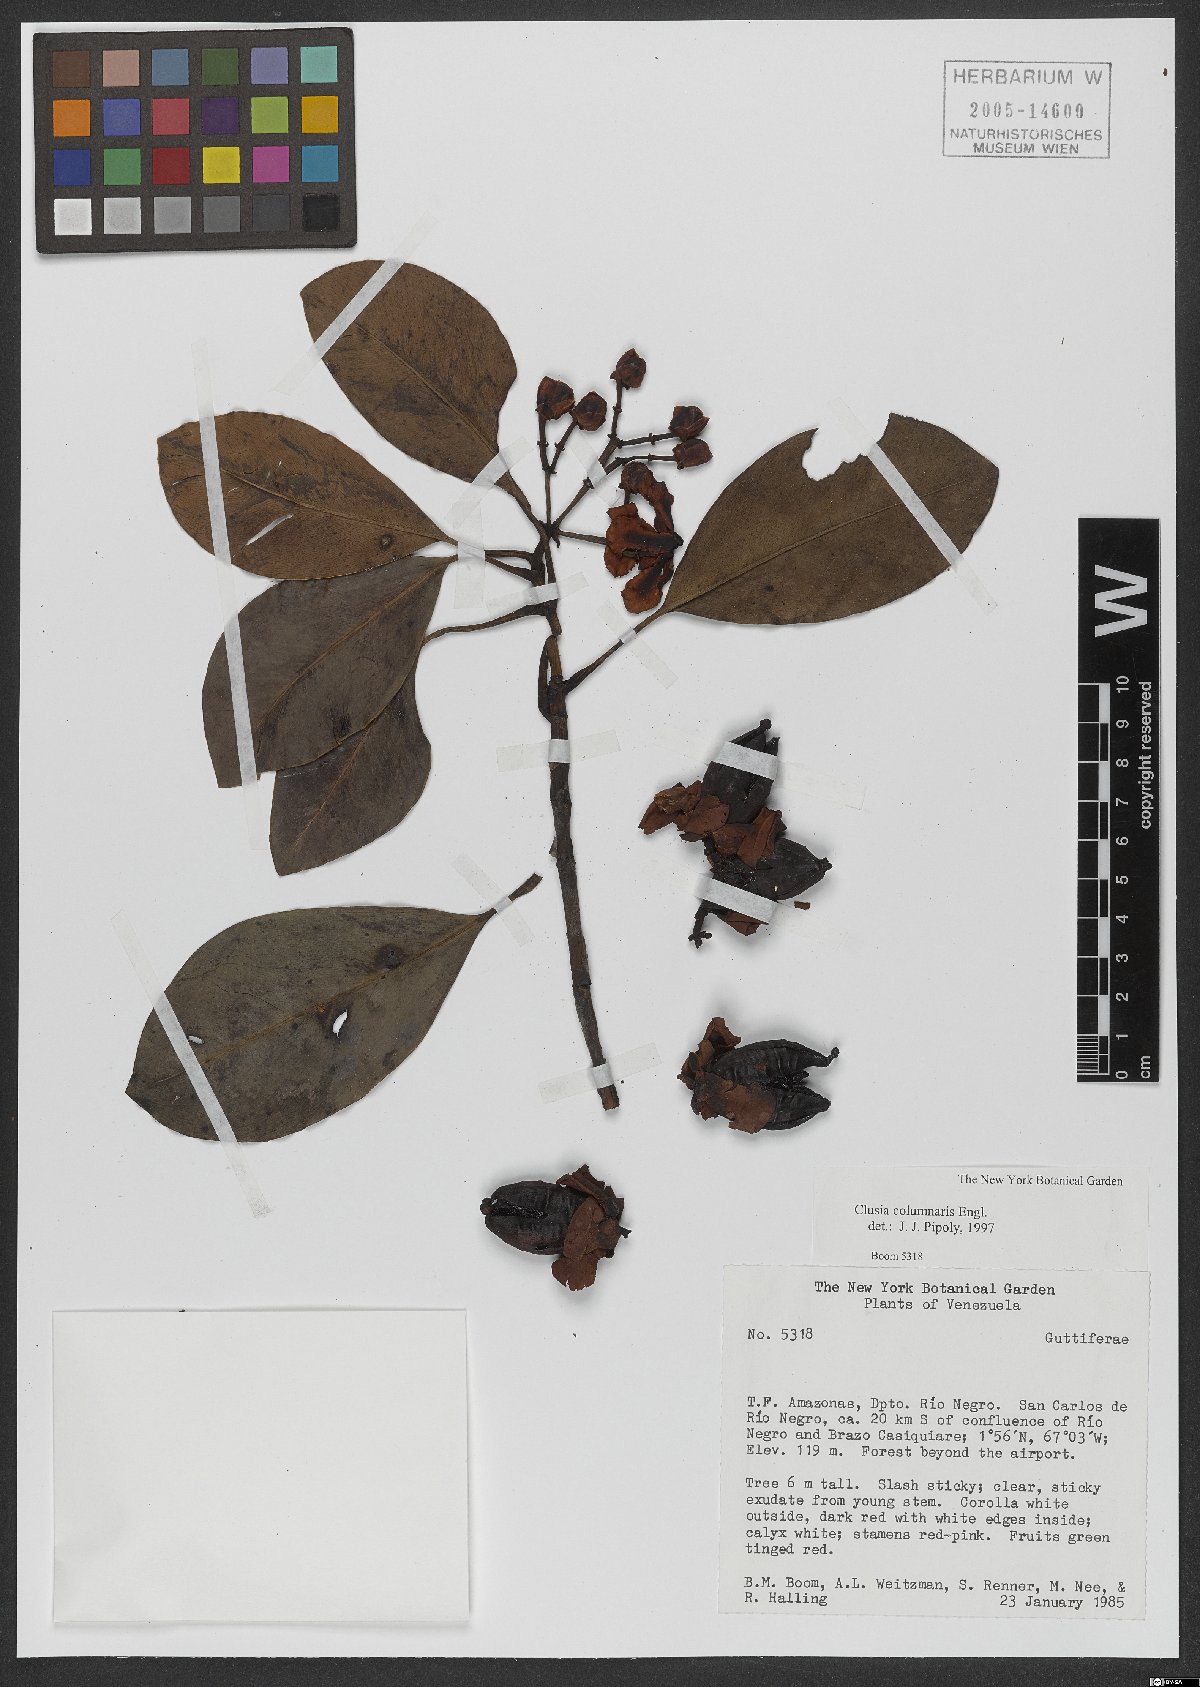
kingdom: Plantae
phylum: Tracheophyta
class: Magnoliopsida
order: Malpighiales
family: Clusiaceae
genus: Clusia
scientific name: Clusia columnaris
